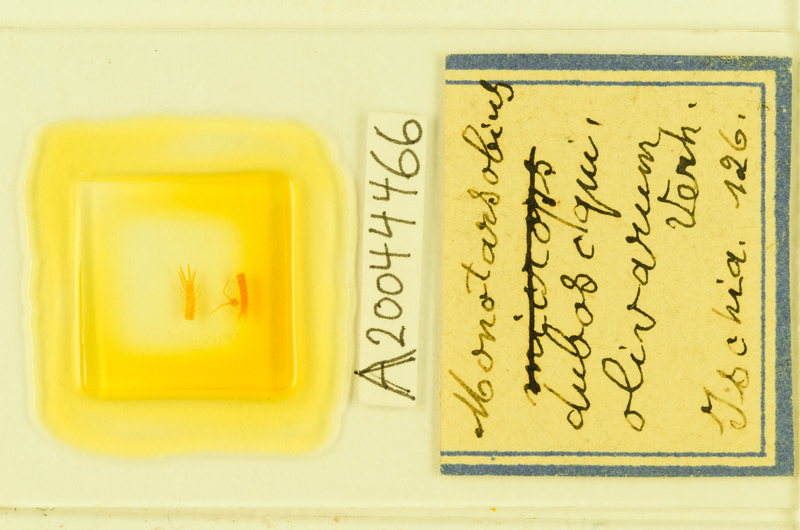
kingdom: Animalia
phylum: Arthropoda
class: Chilopoda
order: Lithobiomorpha
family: Lithobiidae
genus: Monotarsobius
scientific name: Monotarsobius
